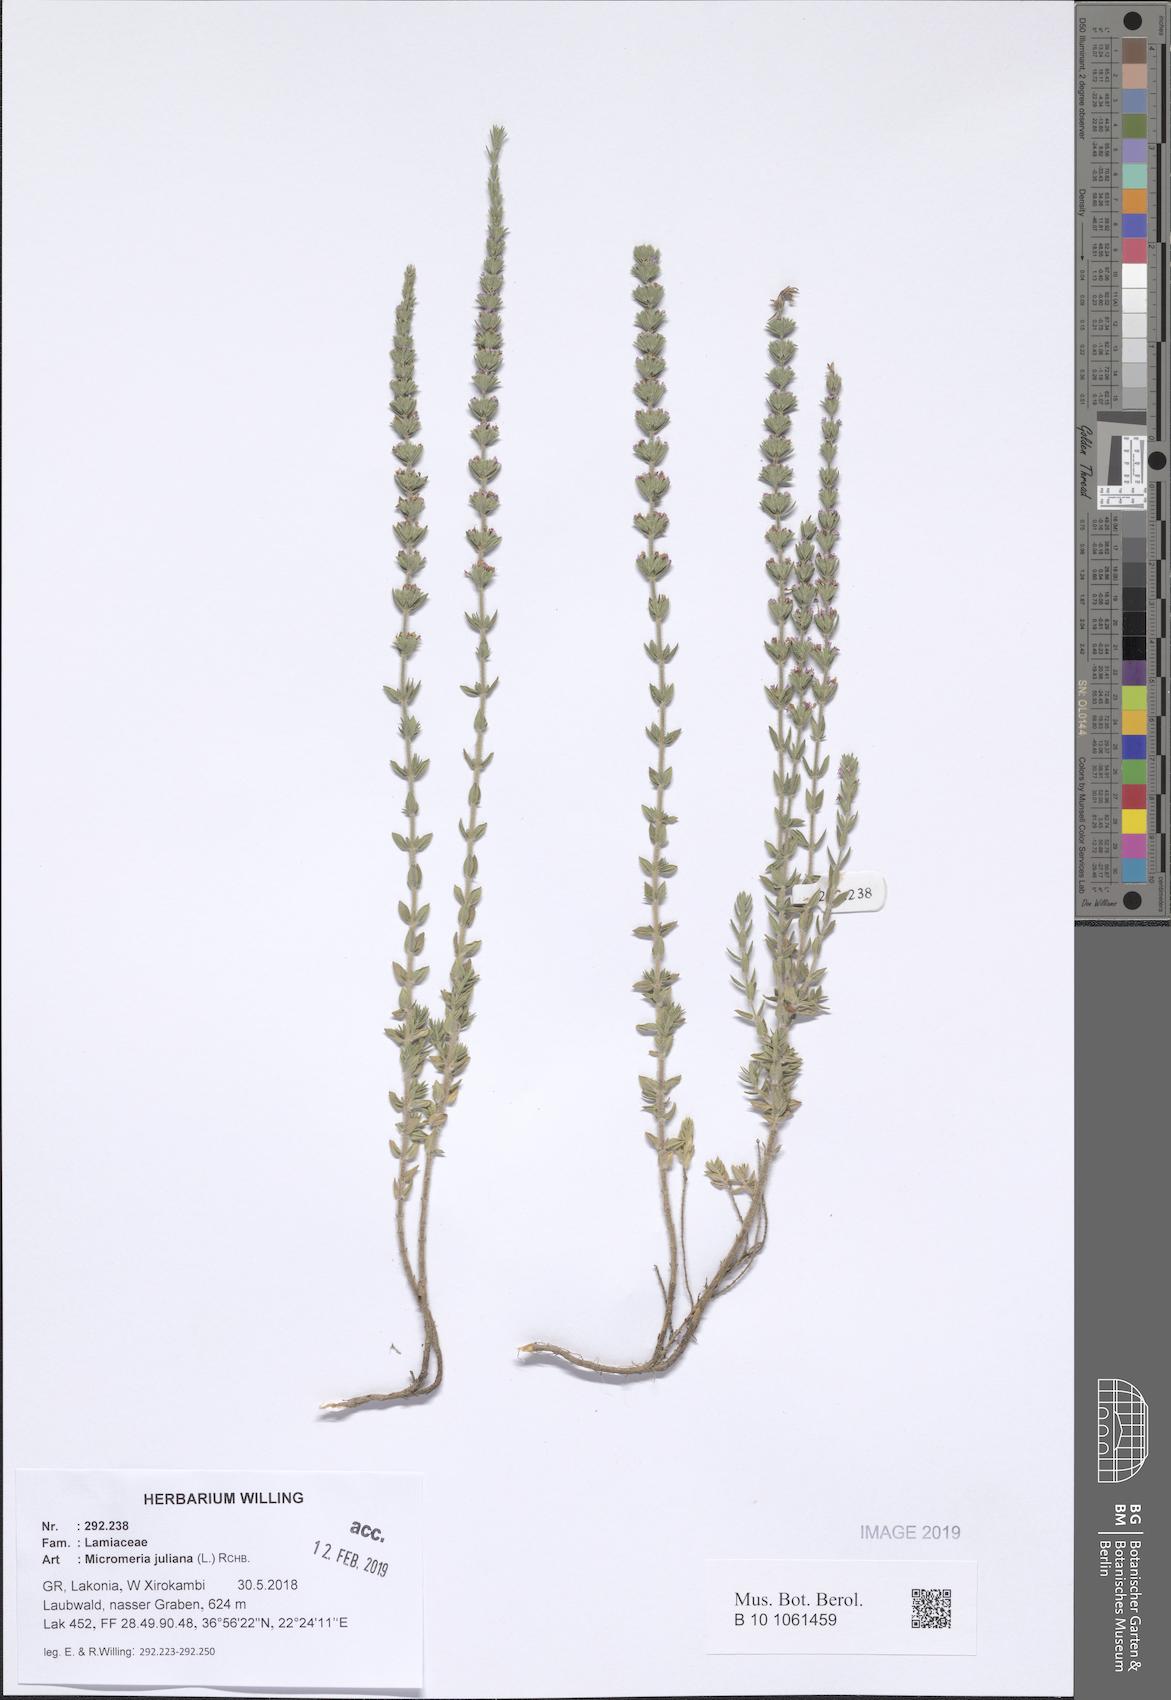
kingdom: Plantae
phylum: Tracheophyta
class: Magnoliopsida
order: Lamiales
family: Lamiaceae
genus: Micromeria
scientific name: Micromeria juliana
